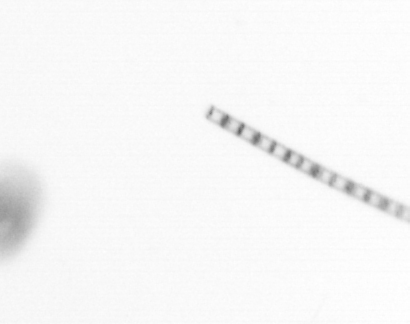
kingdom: Chromista
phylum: Ochrophyta
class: Bacillariophyceae
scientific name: Bacillariophyceae
